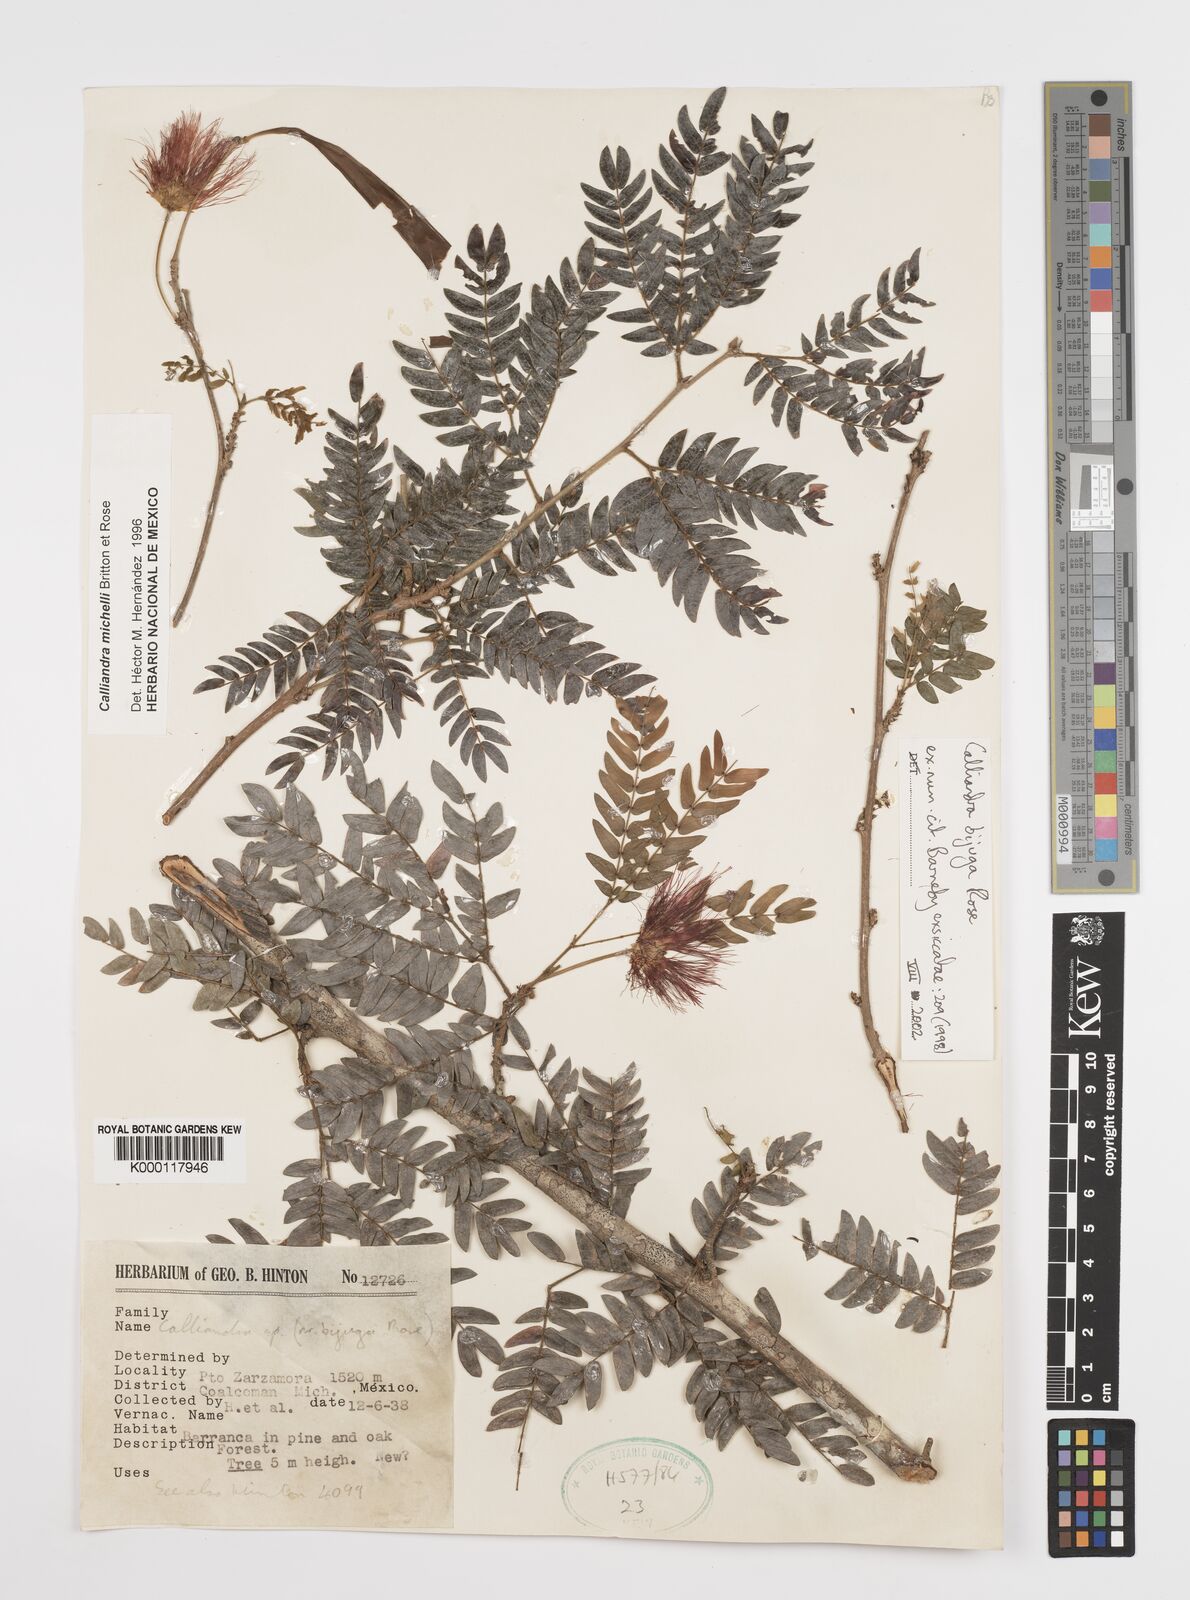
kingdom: Plantae
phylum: Tracheophyta
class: Magnoliopsida
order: Fabales
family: Fabaceae
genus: Calliandra
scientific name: Calliandra bijuga
